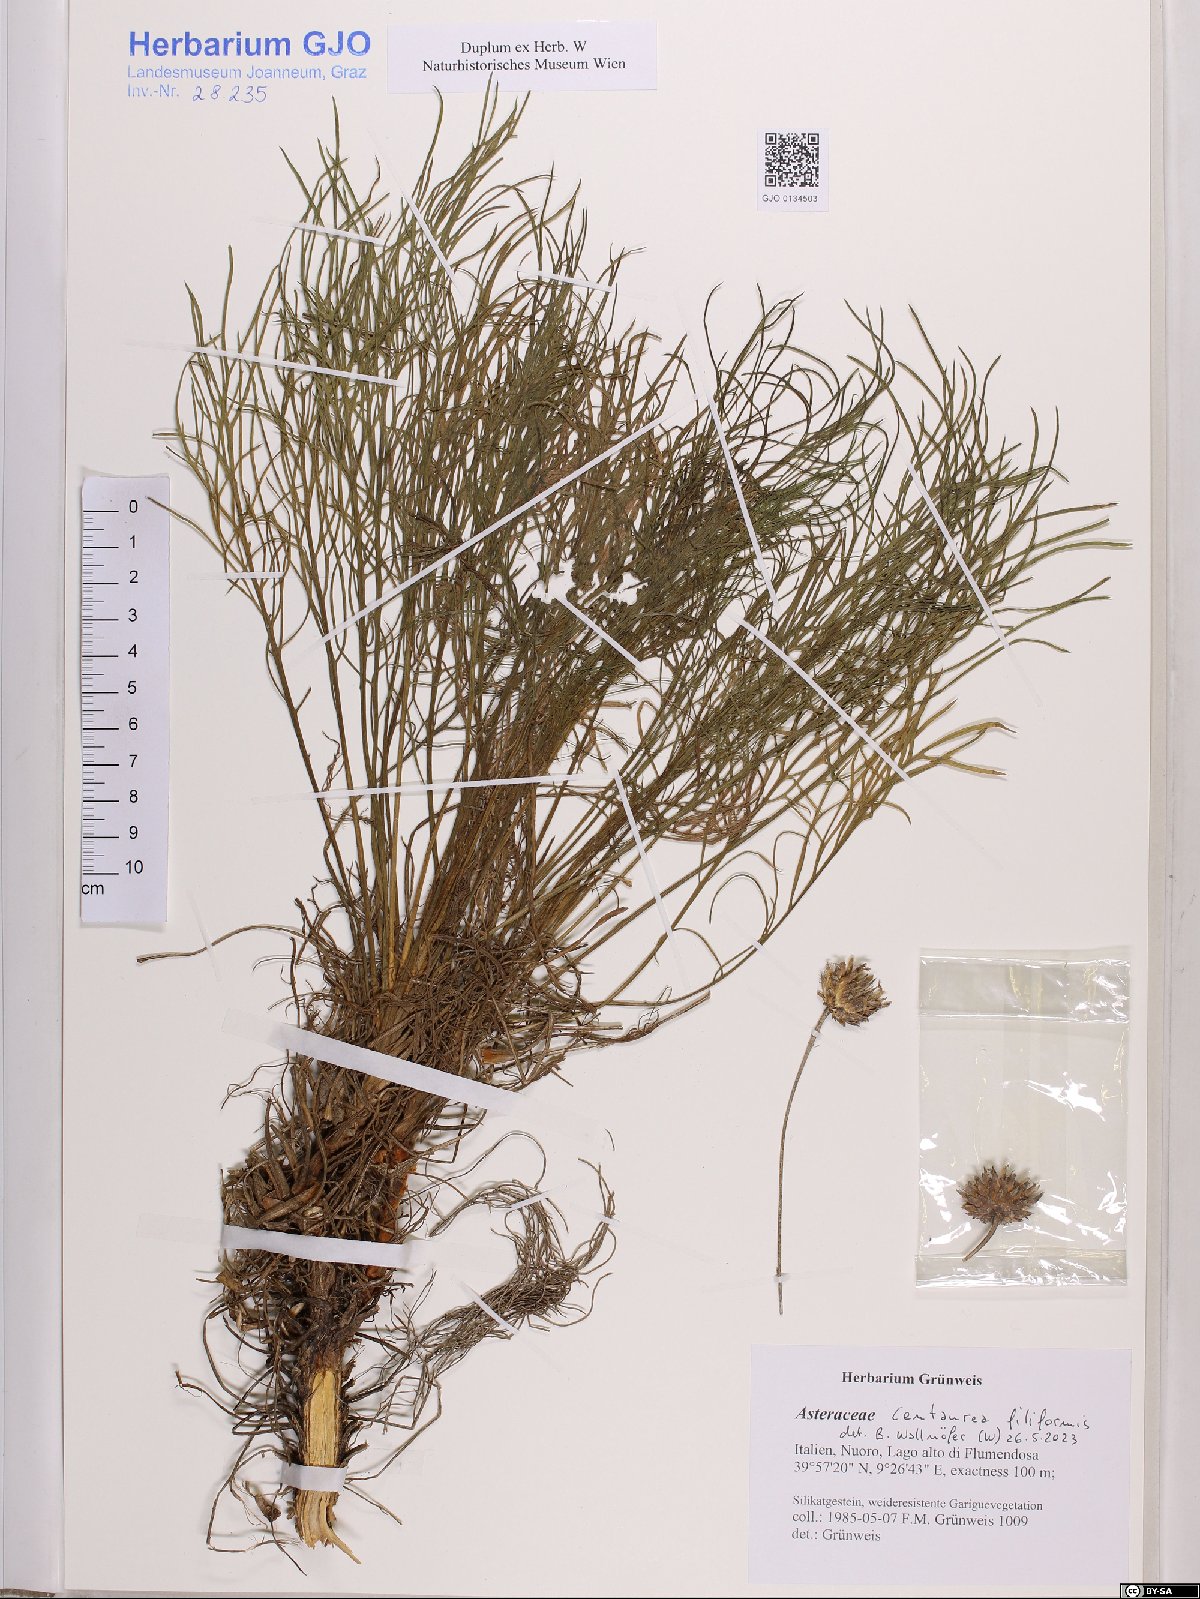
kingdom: Plantae
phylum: Tracheophyta
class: Magnoliopsida
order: Asterales
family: Asteraceae
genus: Centaurea
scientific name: Centaurea filiformis
